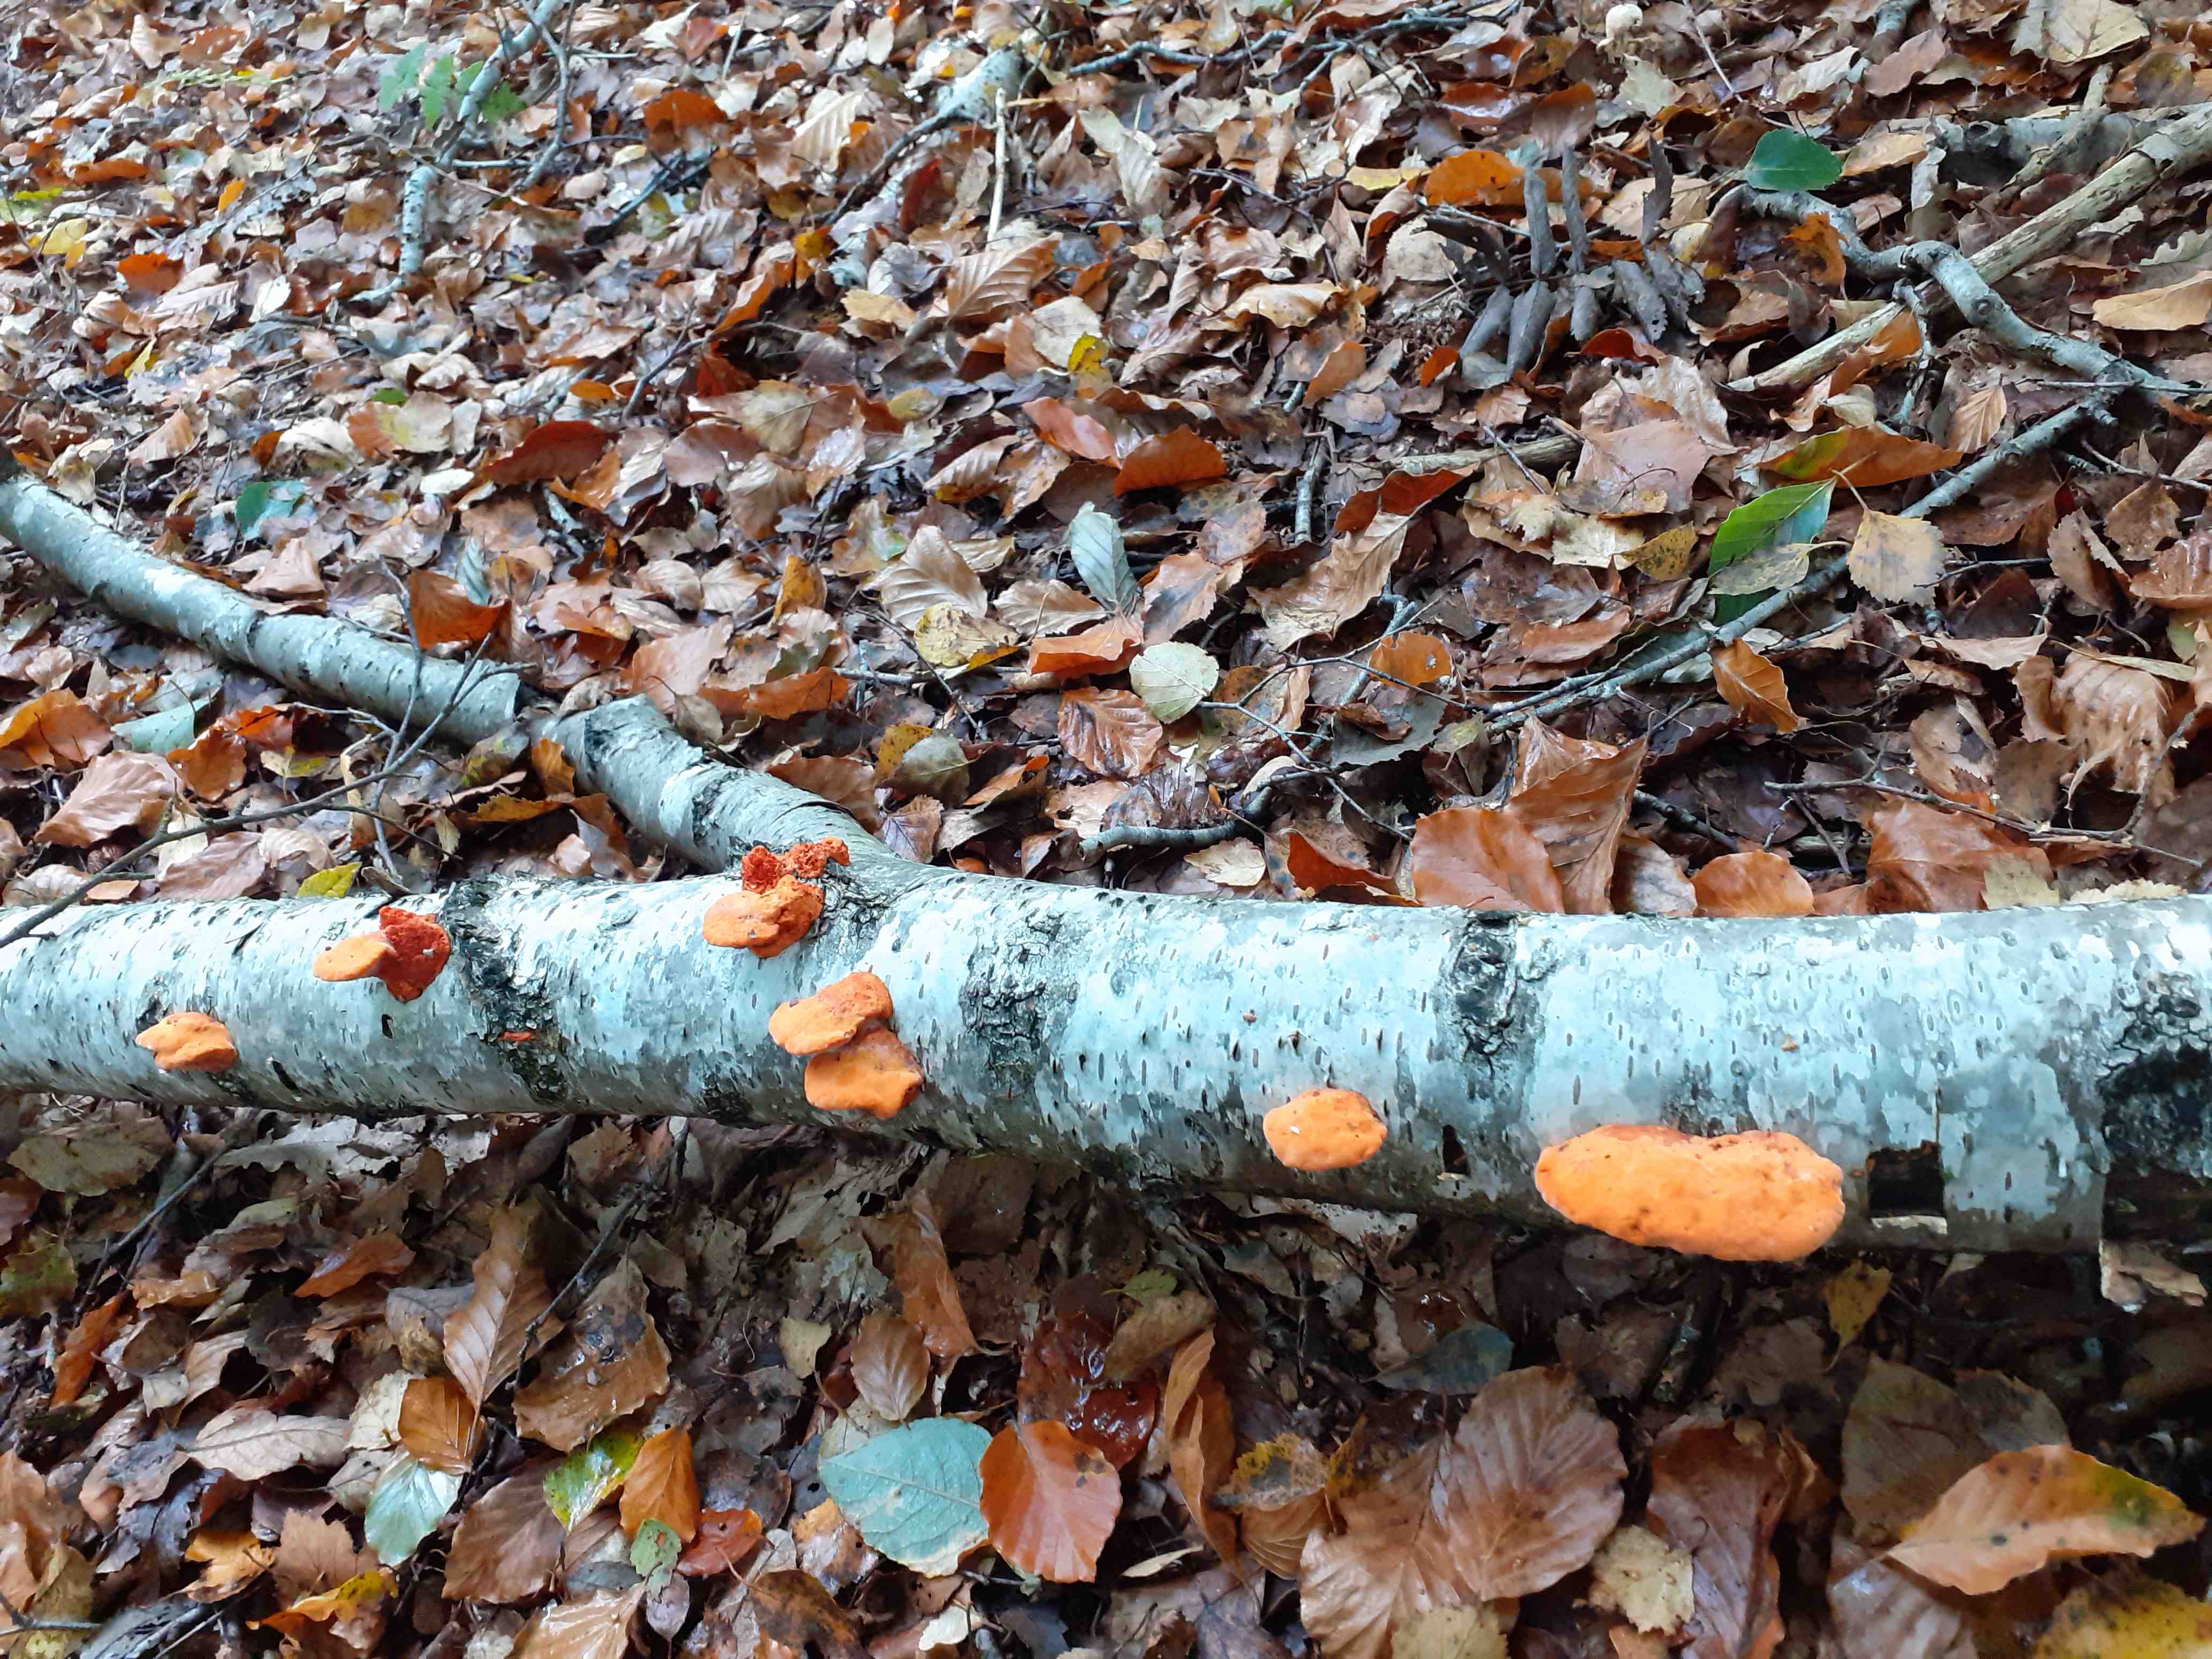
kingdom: Fungi
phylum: Basidiomycota
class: Agaricomycetes
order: Polyporales
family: Polyporaceae
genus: Trametes
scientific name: Trametes cinnabarina
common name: cinnoberporesvamp
